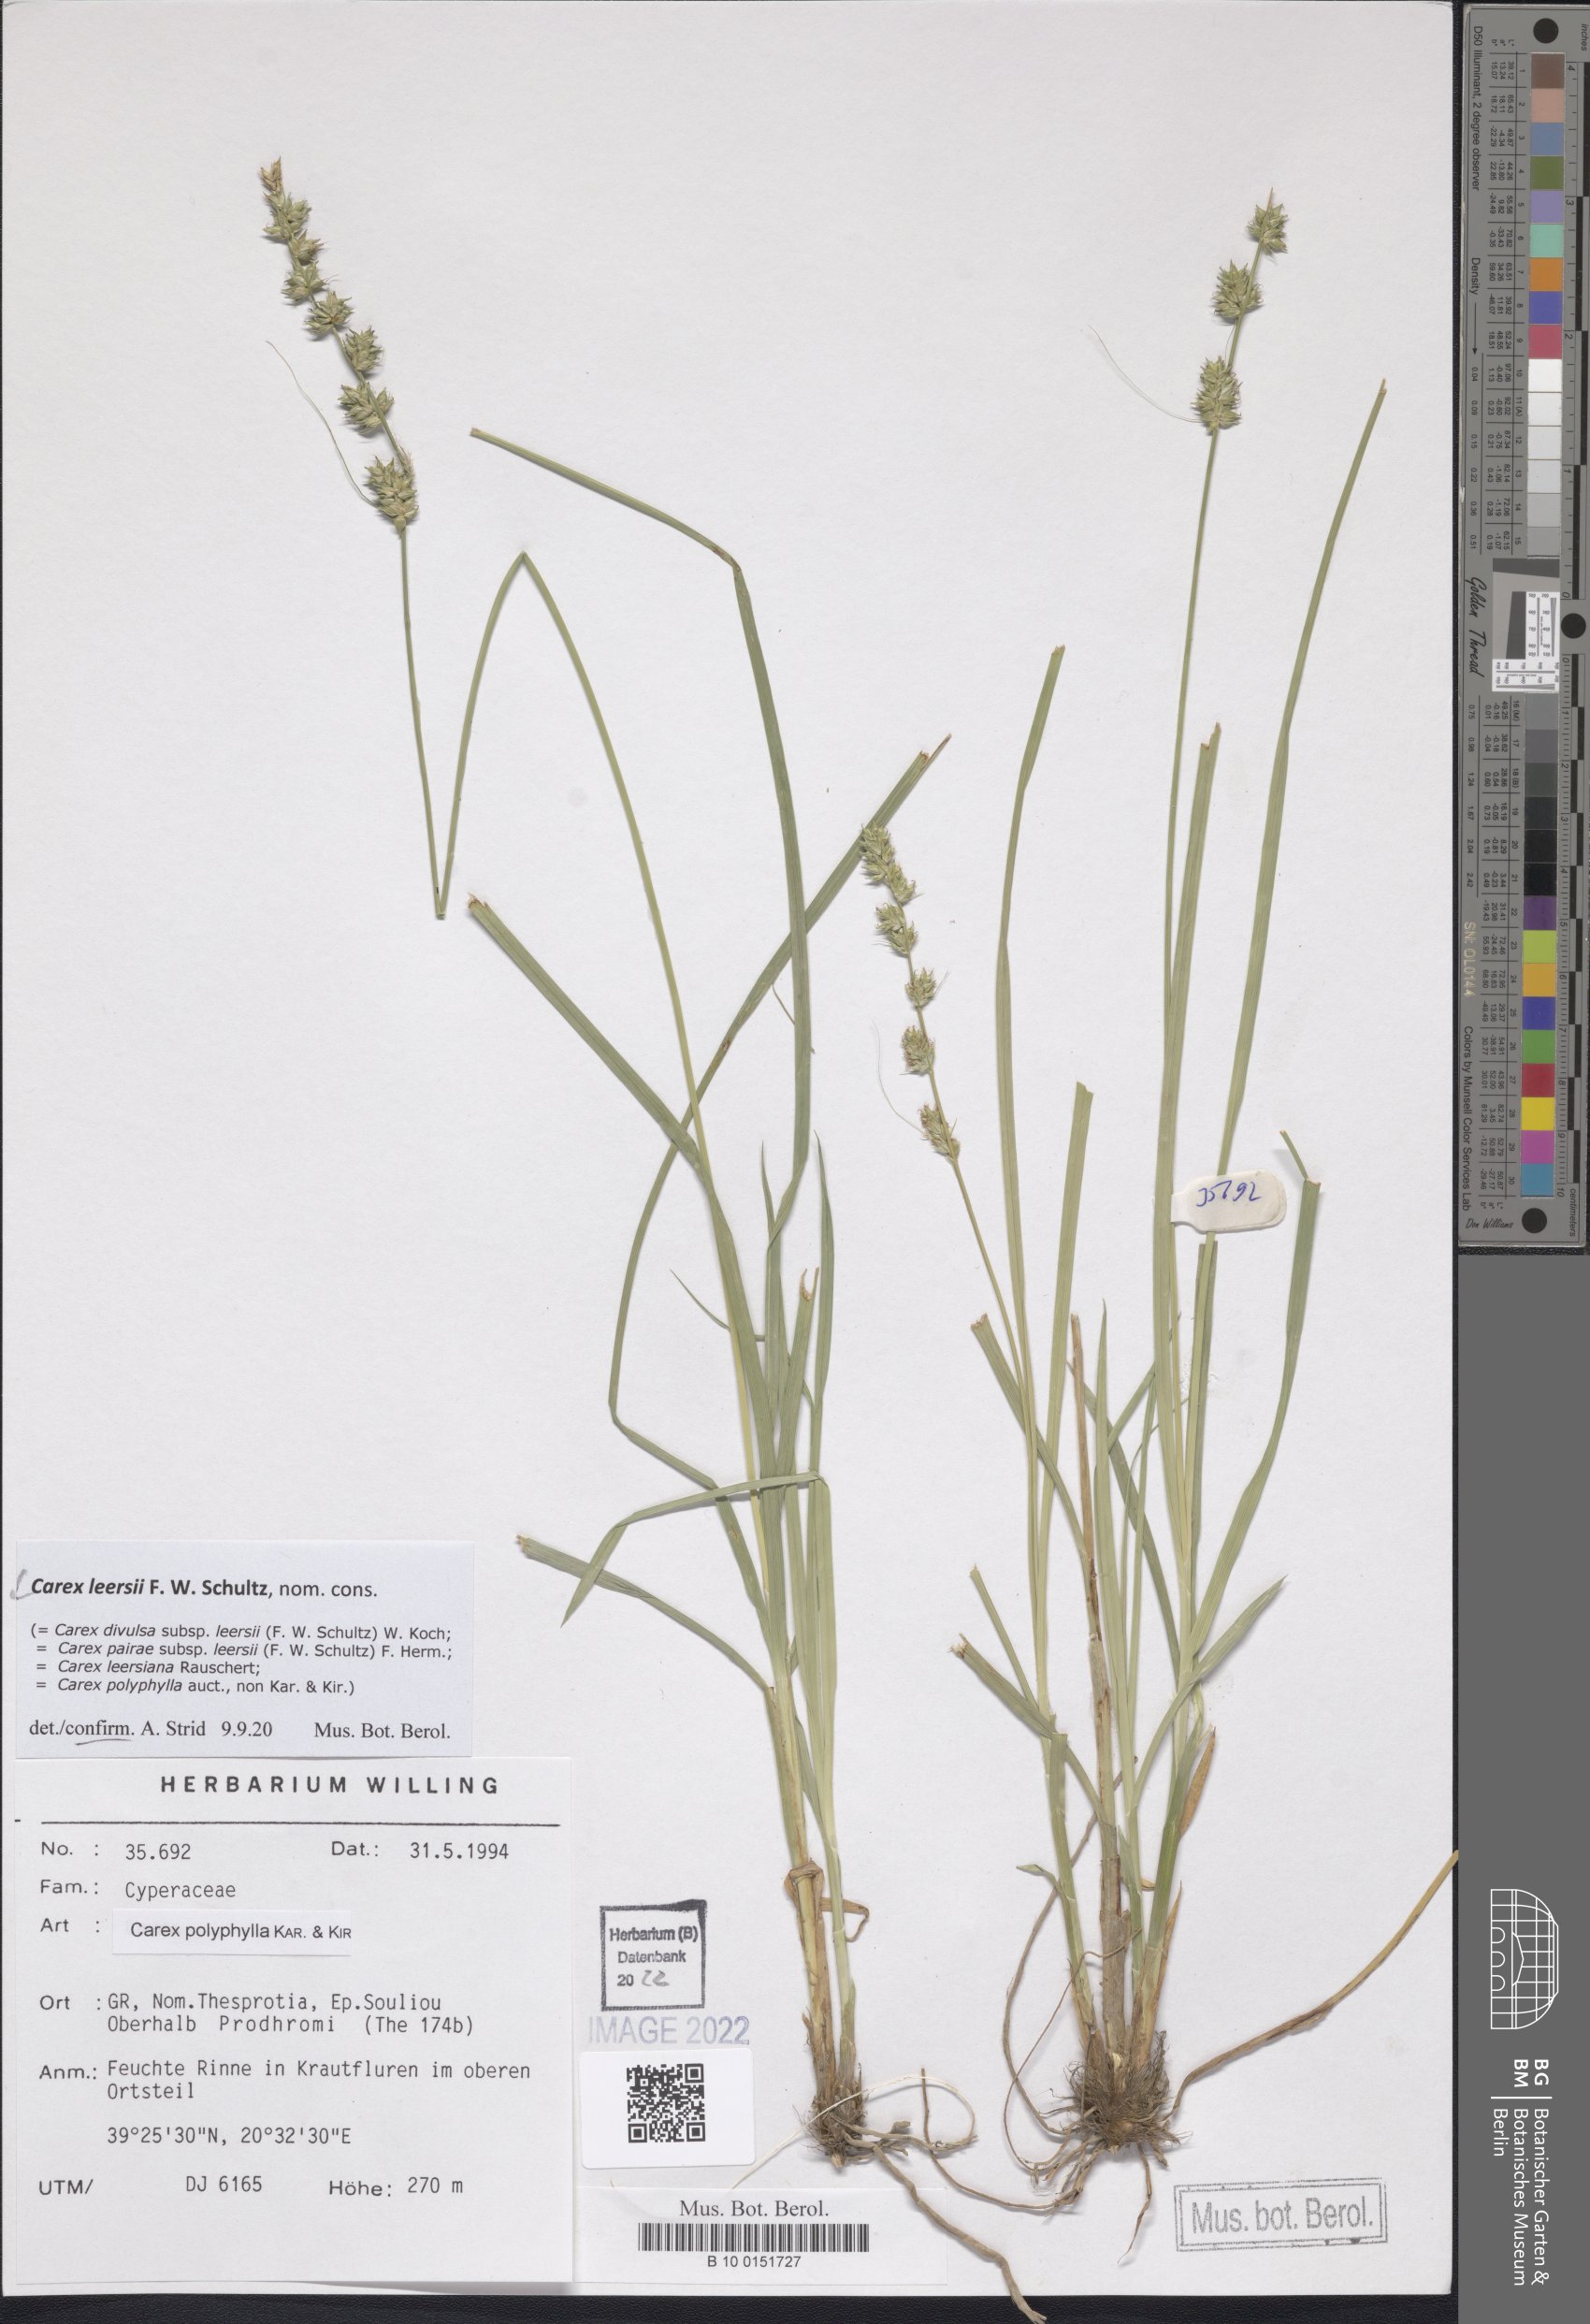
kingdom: Plantae
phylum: Tracheophyta
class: Liliopsida
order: Poales
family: Cyperaceae
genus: Carex
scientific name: Carex leersii
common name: Leers' sedge
